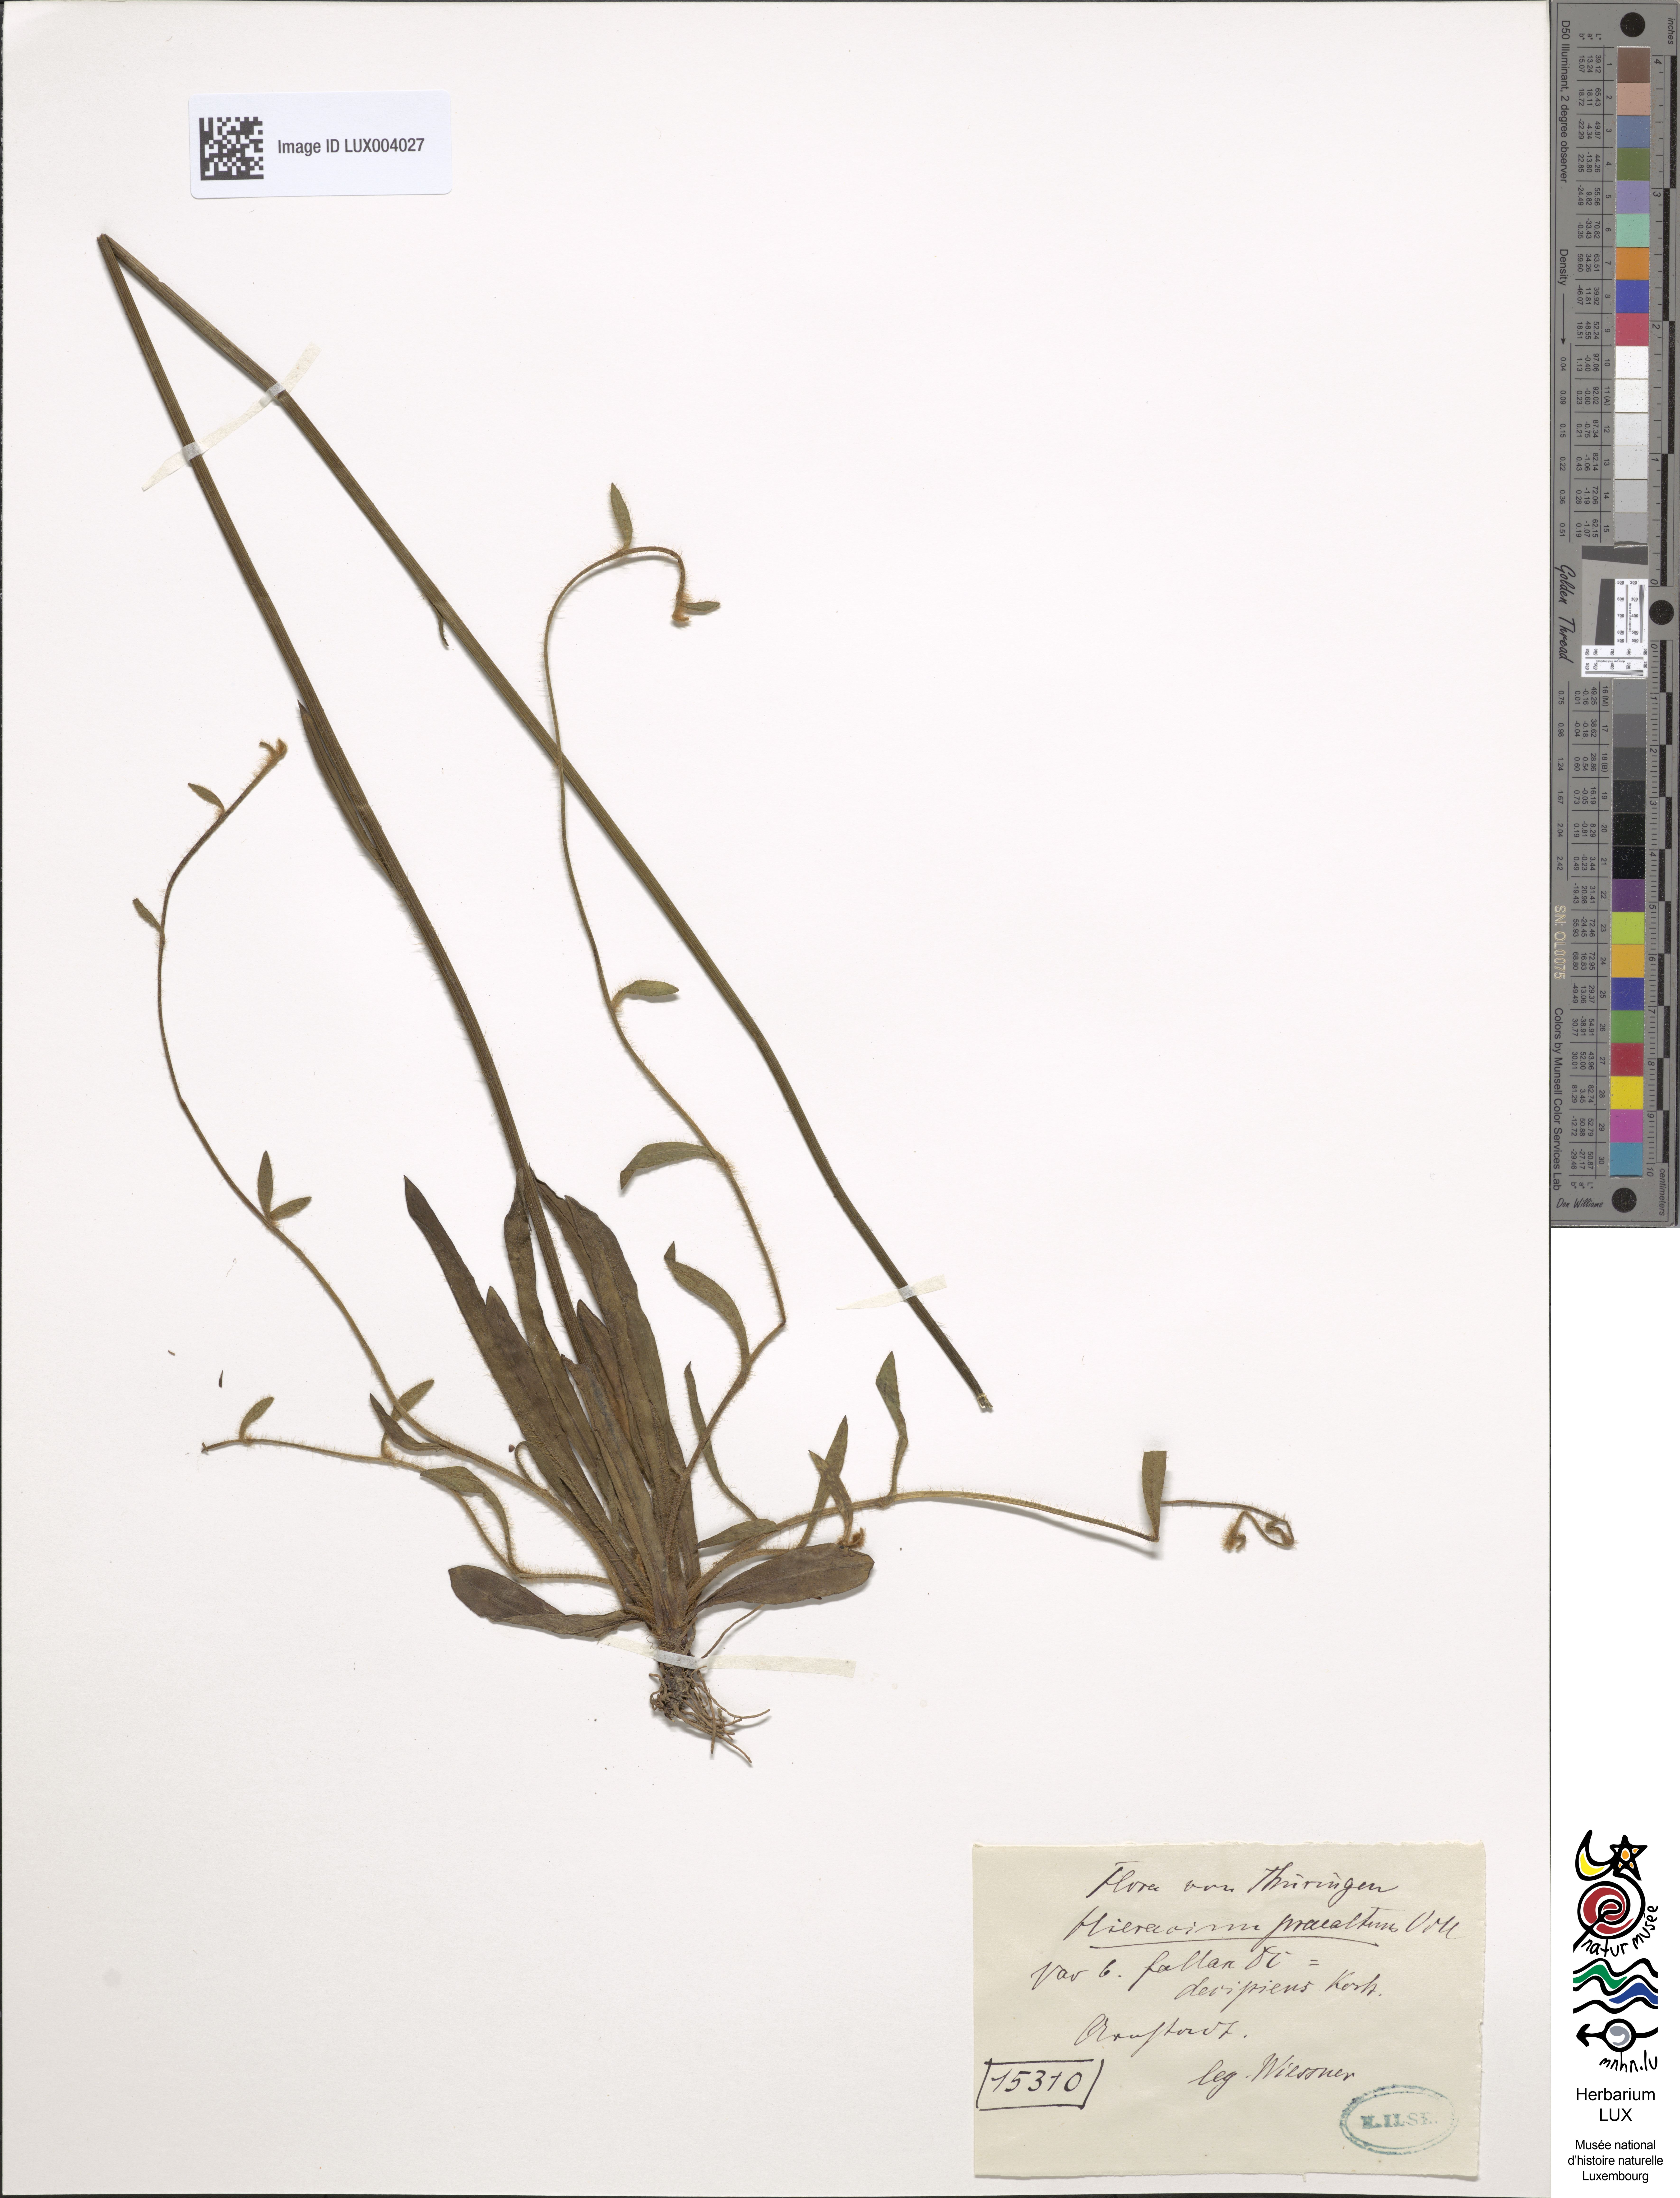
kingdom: Plantae
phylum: Tracheophyta
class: Magnoliopsida
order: Asterales
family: Asteraceae
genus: Hieracium
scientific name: Hieracium piloselloides
